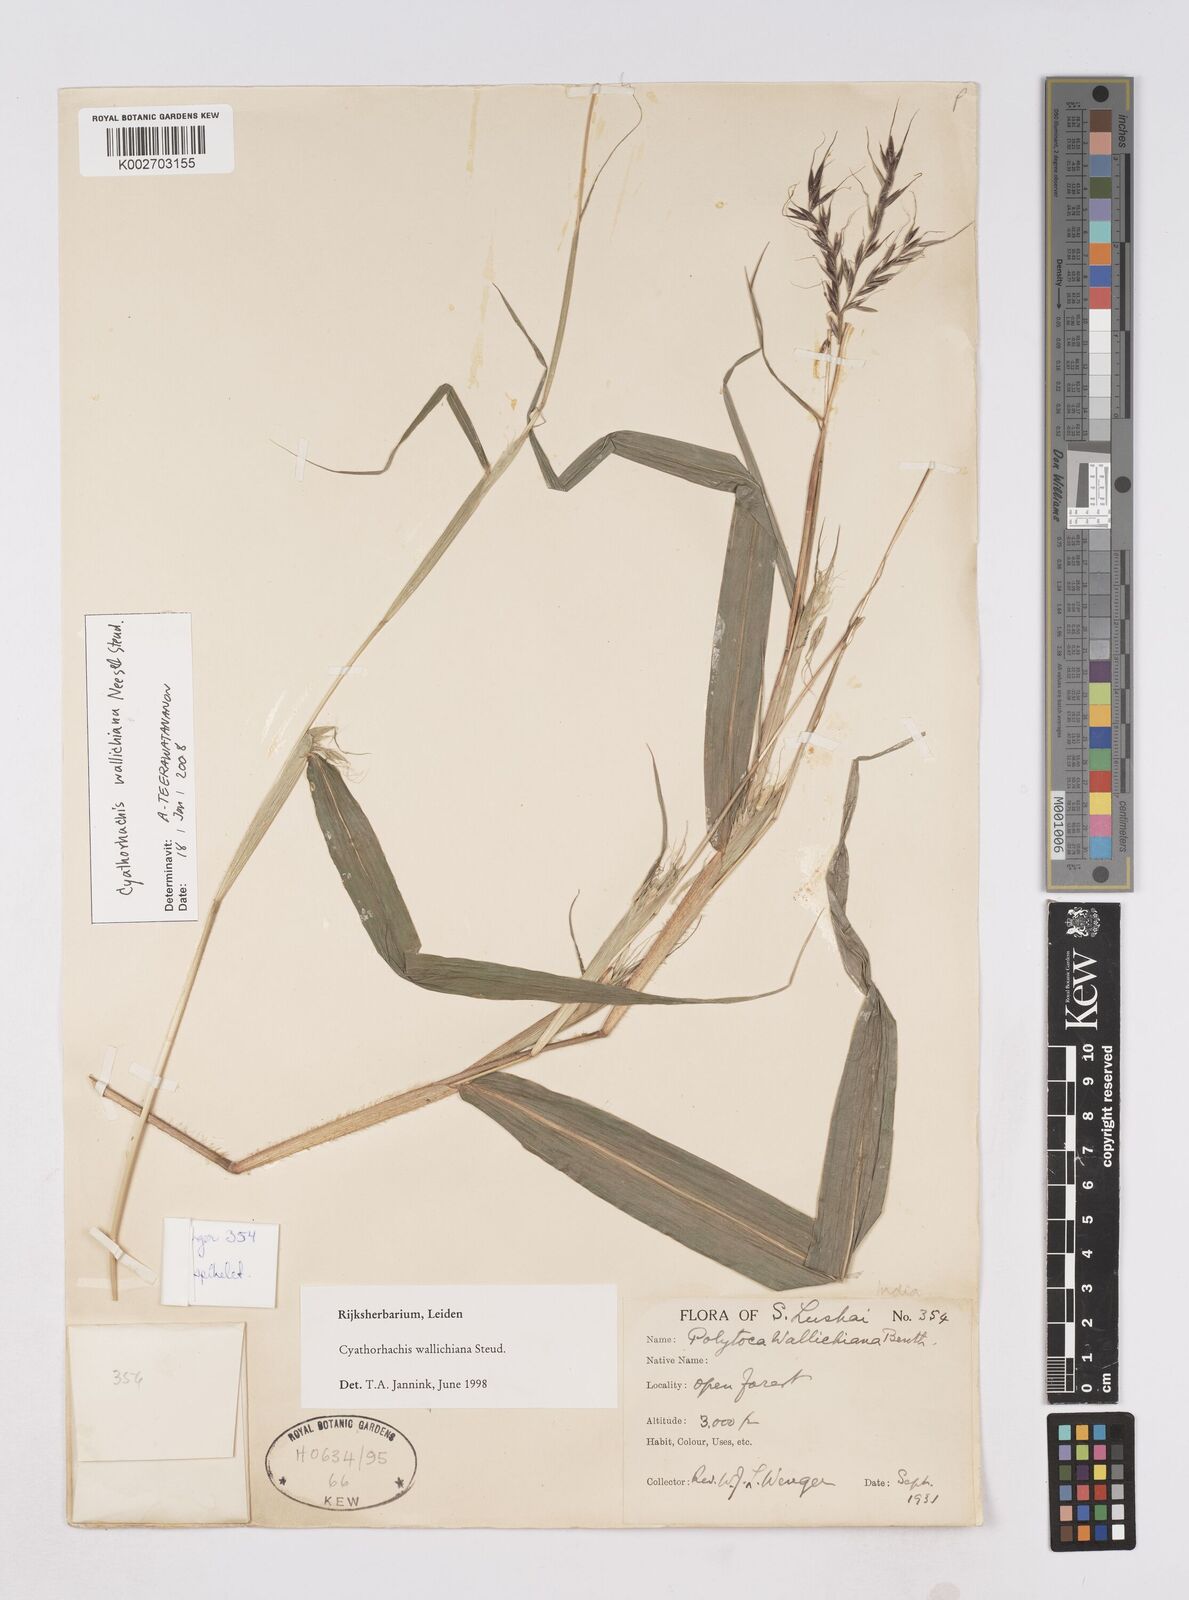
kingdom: Plantae
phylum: Tracheophyta
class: Liliopsida
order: Poales
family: Poaceae
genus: Polytoca
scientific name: Polytoca wallichiana
